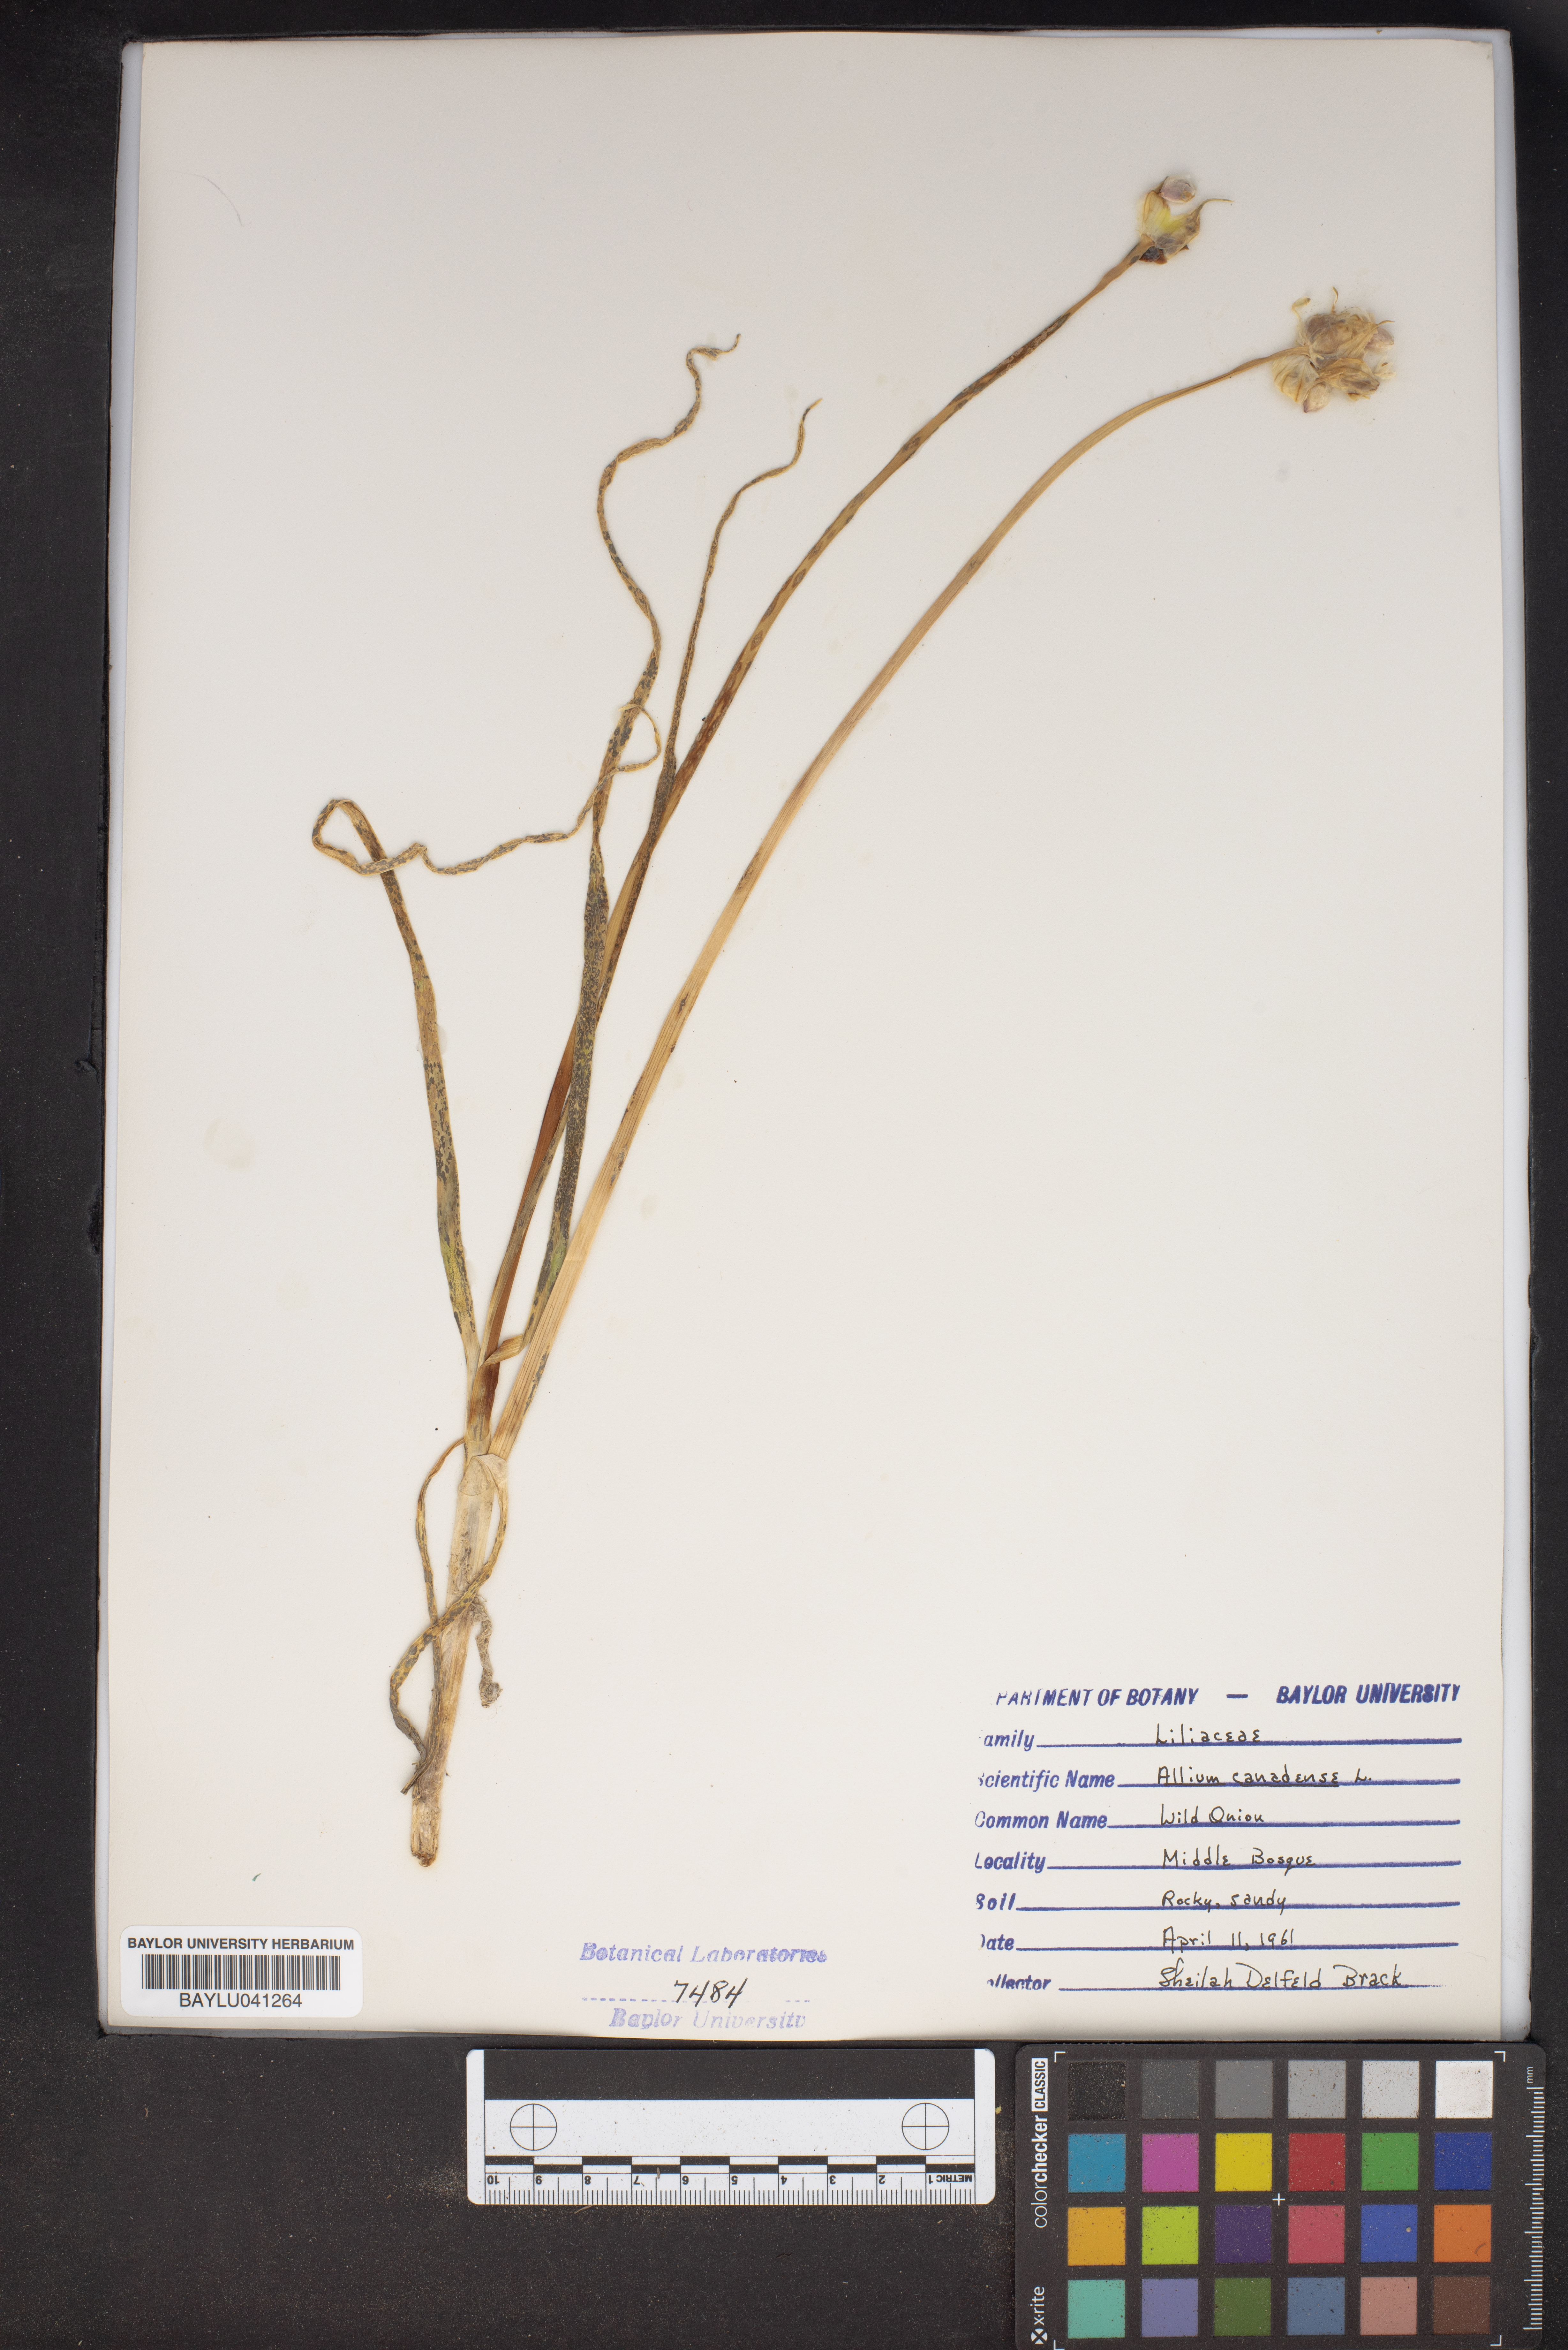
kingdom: Plantae
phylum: Tracheophyta
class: Liliopsida
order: Asparagales
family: Amaryllidaceae
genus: Allium
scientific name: Allium canadense
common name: Meadow garlic
